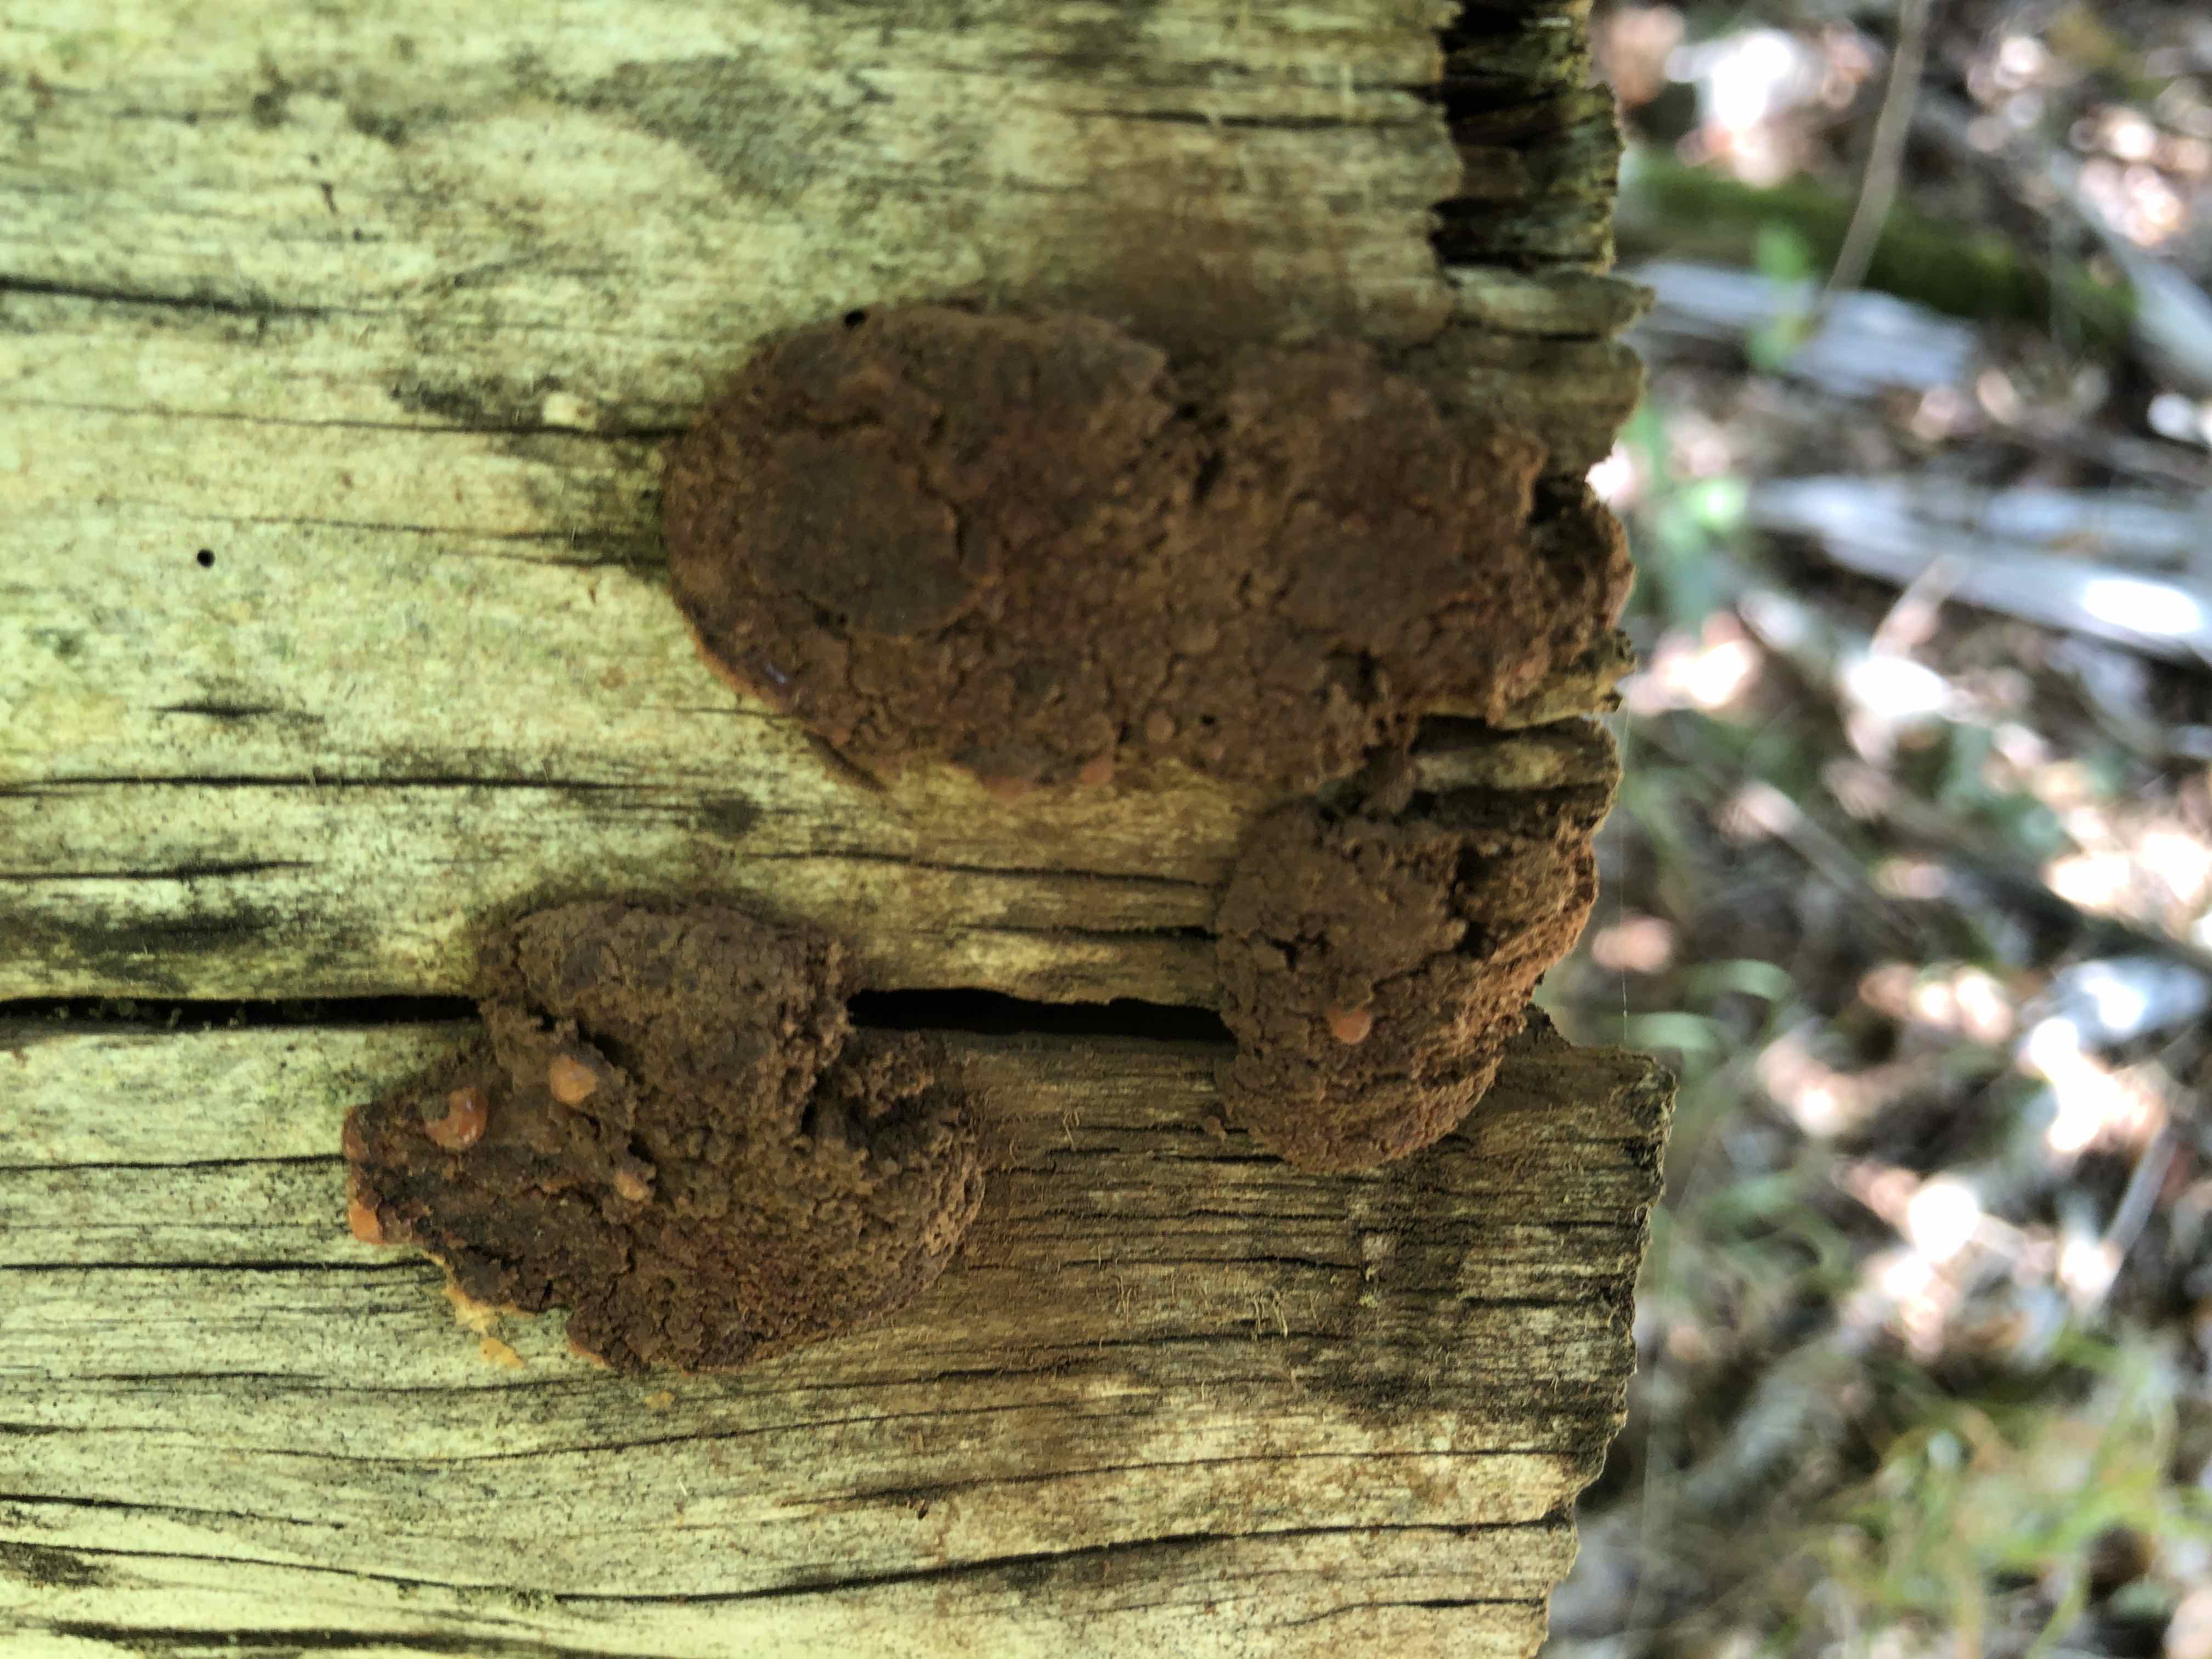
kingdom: Protozoa
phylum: Mycetozoa
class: Myxomycetes
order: Cribrariales
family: Tubiferaceae
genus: Tubifera
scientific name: Tubifera ferruginosa
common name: kanel-støvrør
